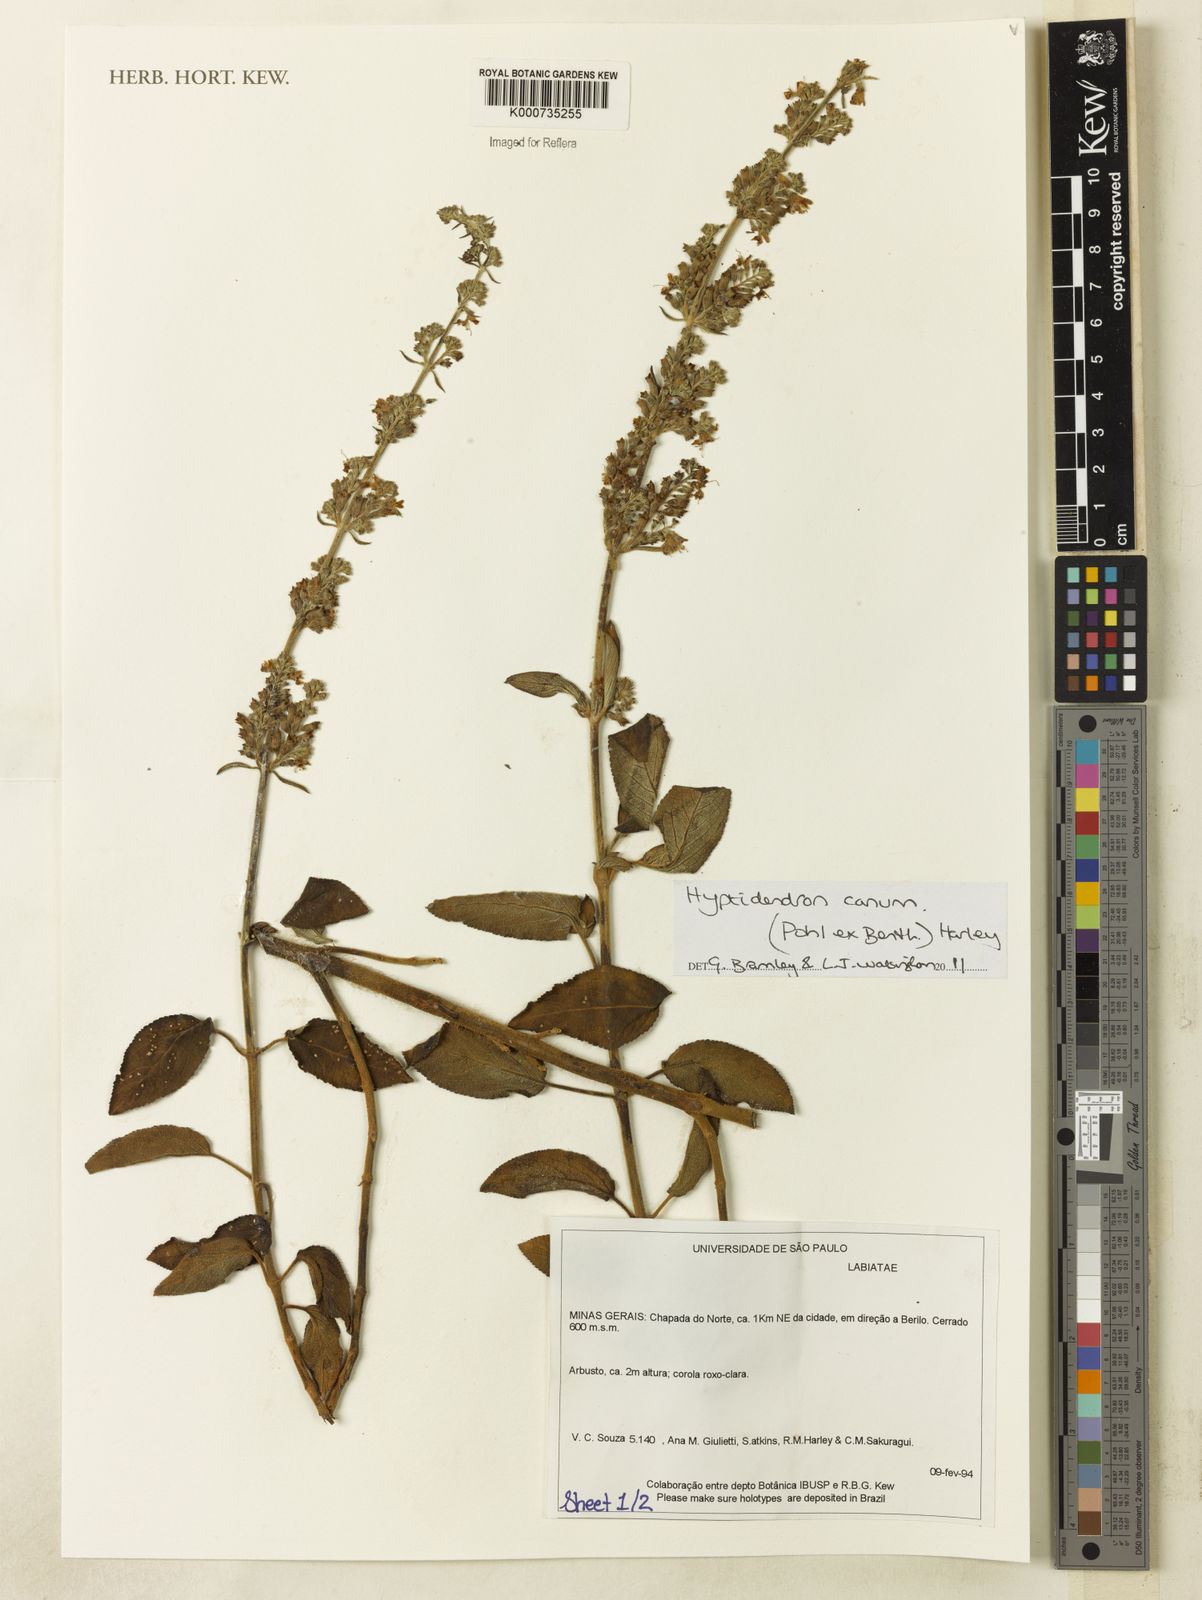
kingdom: Plantae
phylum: Tracheophyta
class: Magnoliopsida
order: Lamiales
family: Lamiaceae
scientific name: Lamiaceae
